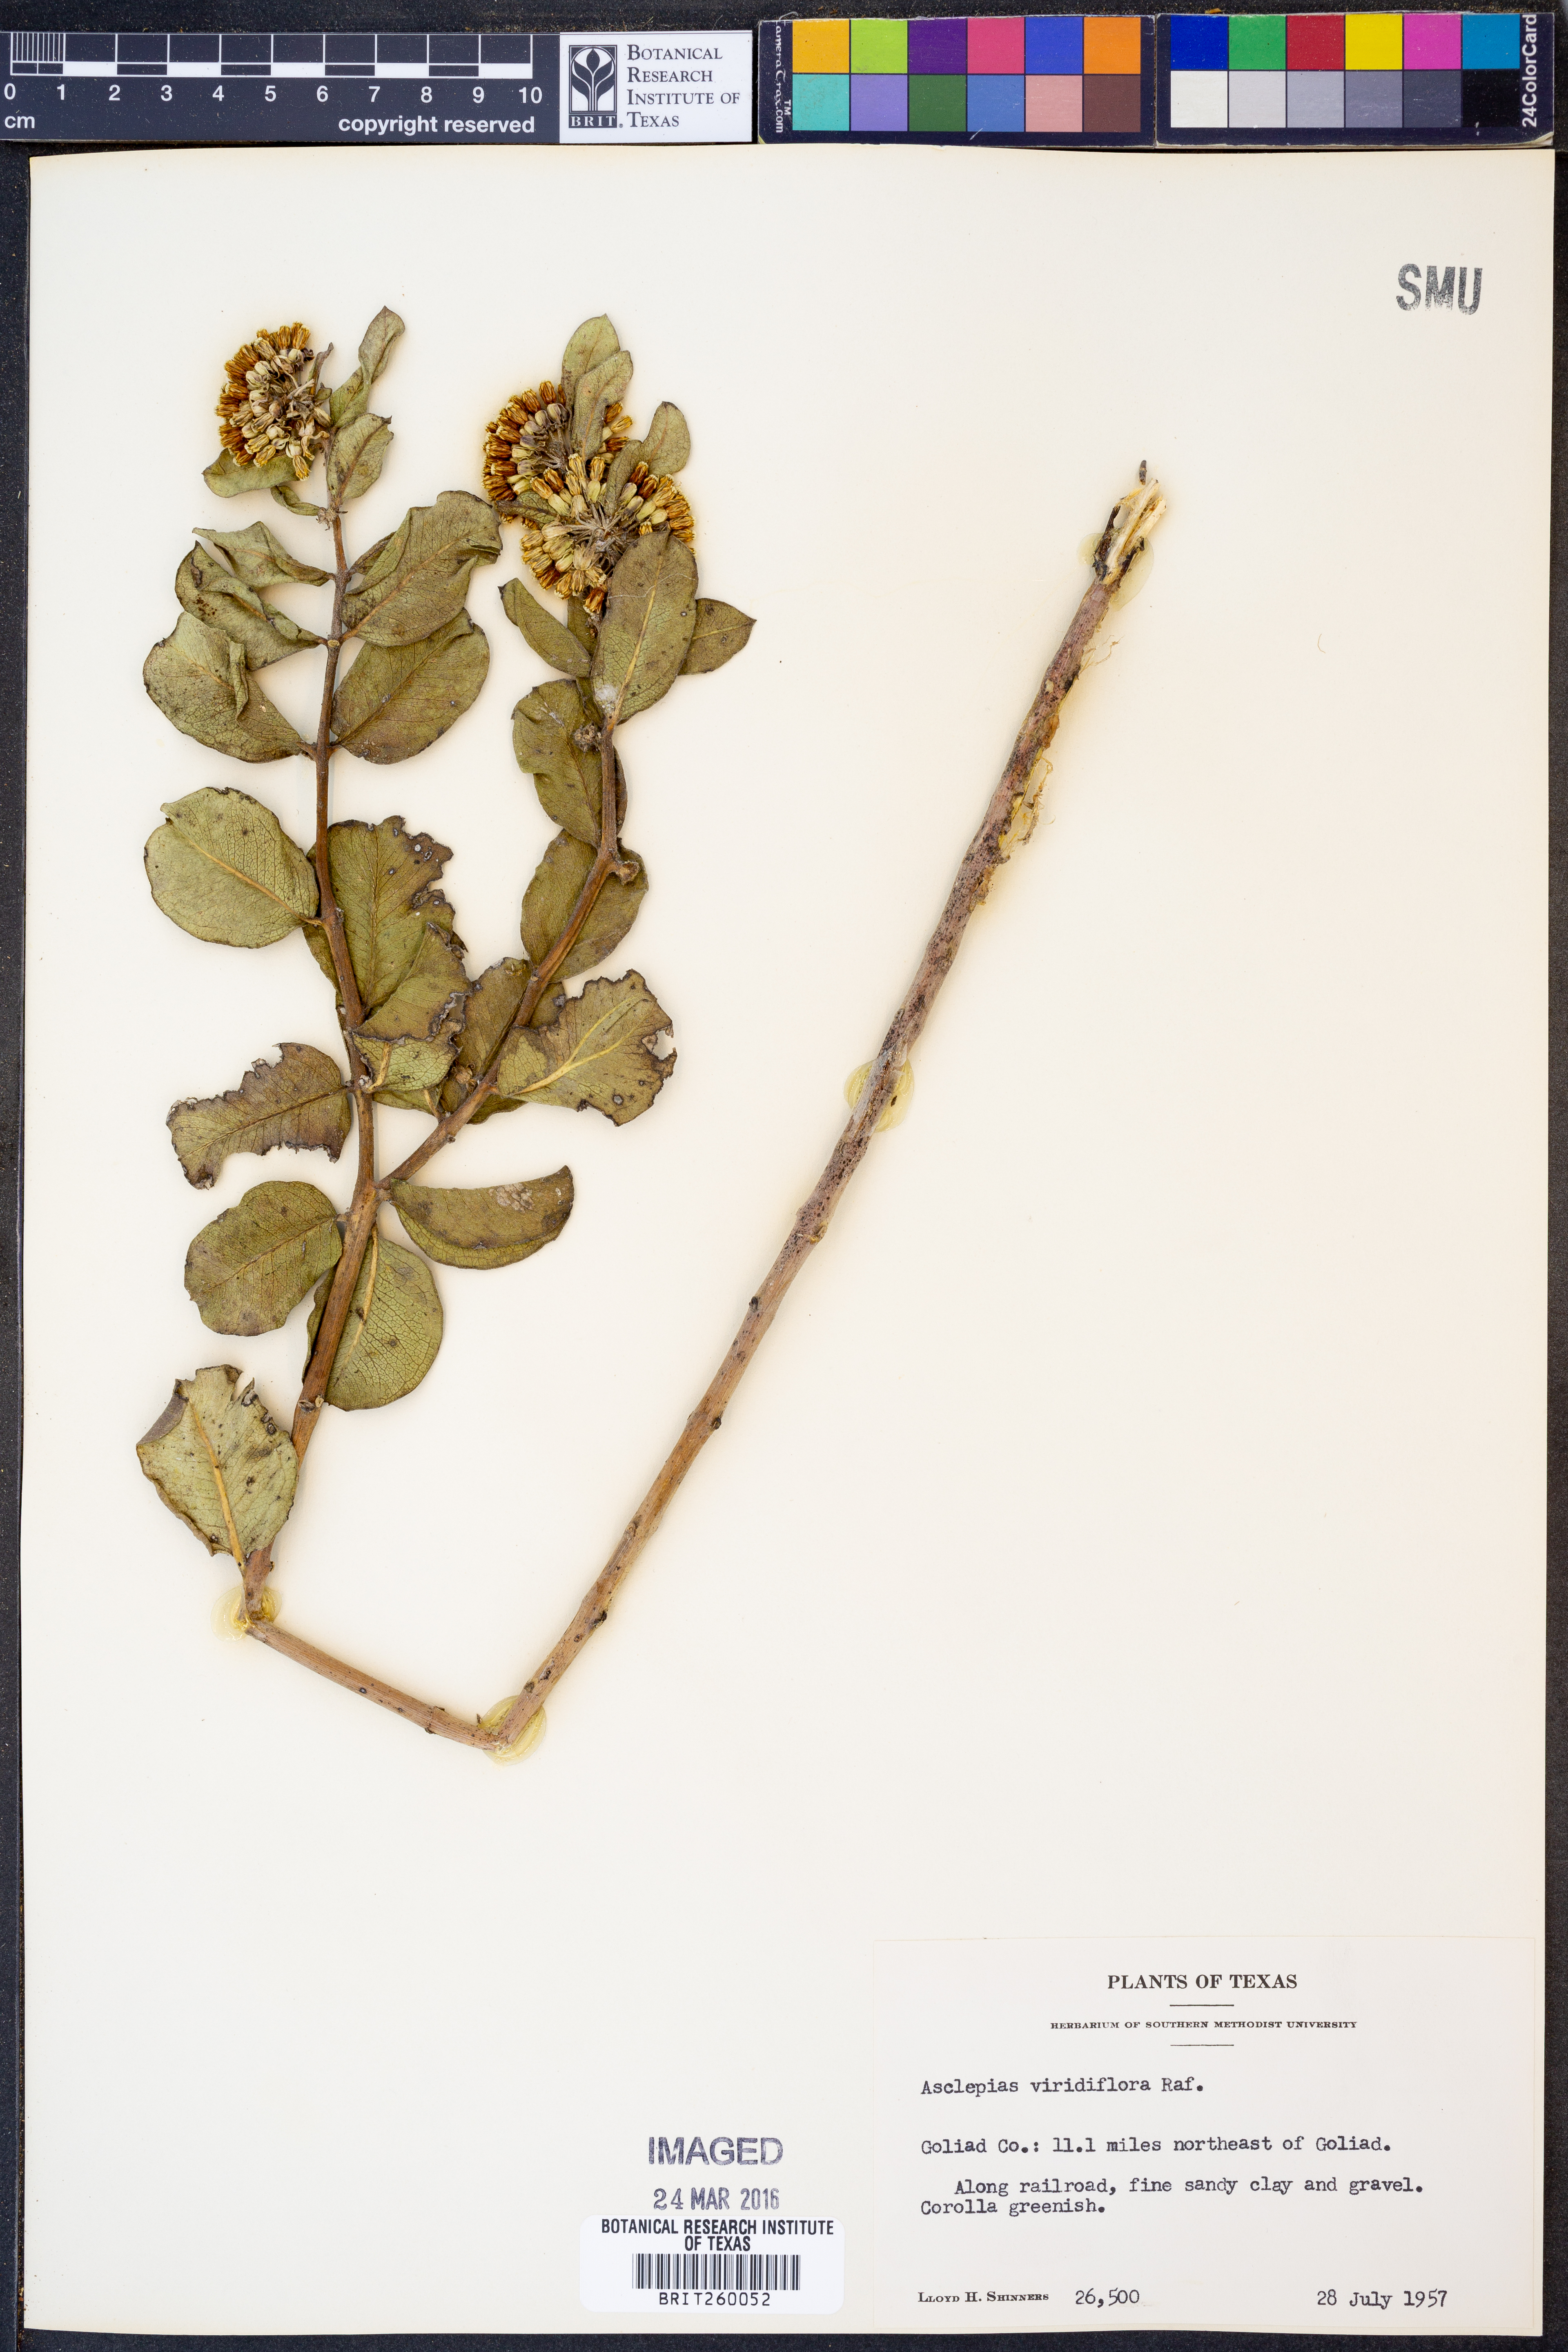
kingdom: Plantae
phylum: Tracheophyta
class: Magnoliopsida
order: Gentianales
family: Apocynaceae
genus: Asclepias
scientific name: Asclepias viridiflora
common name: Green comet milkweed
